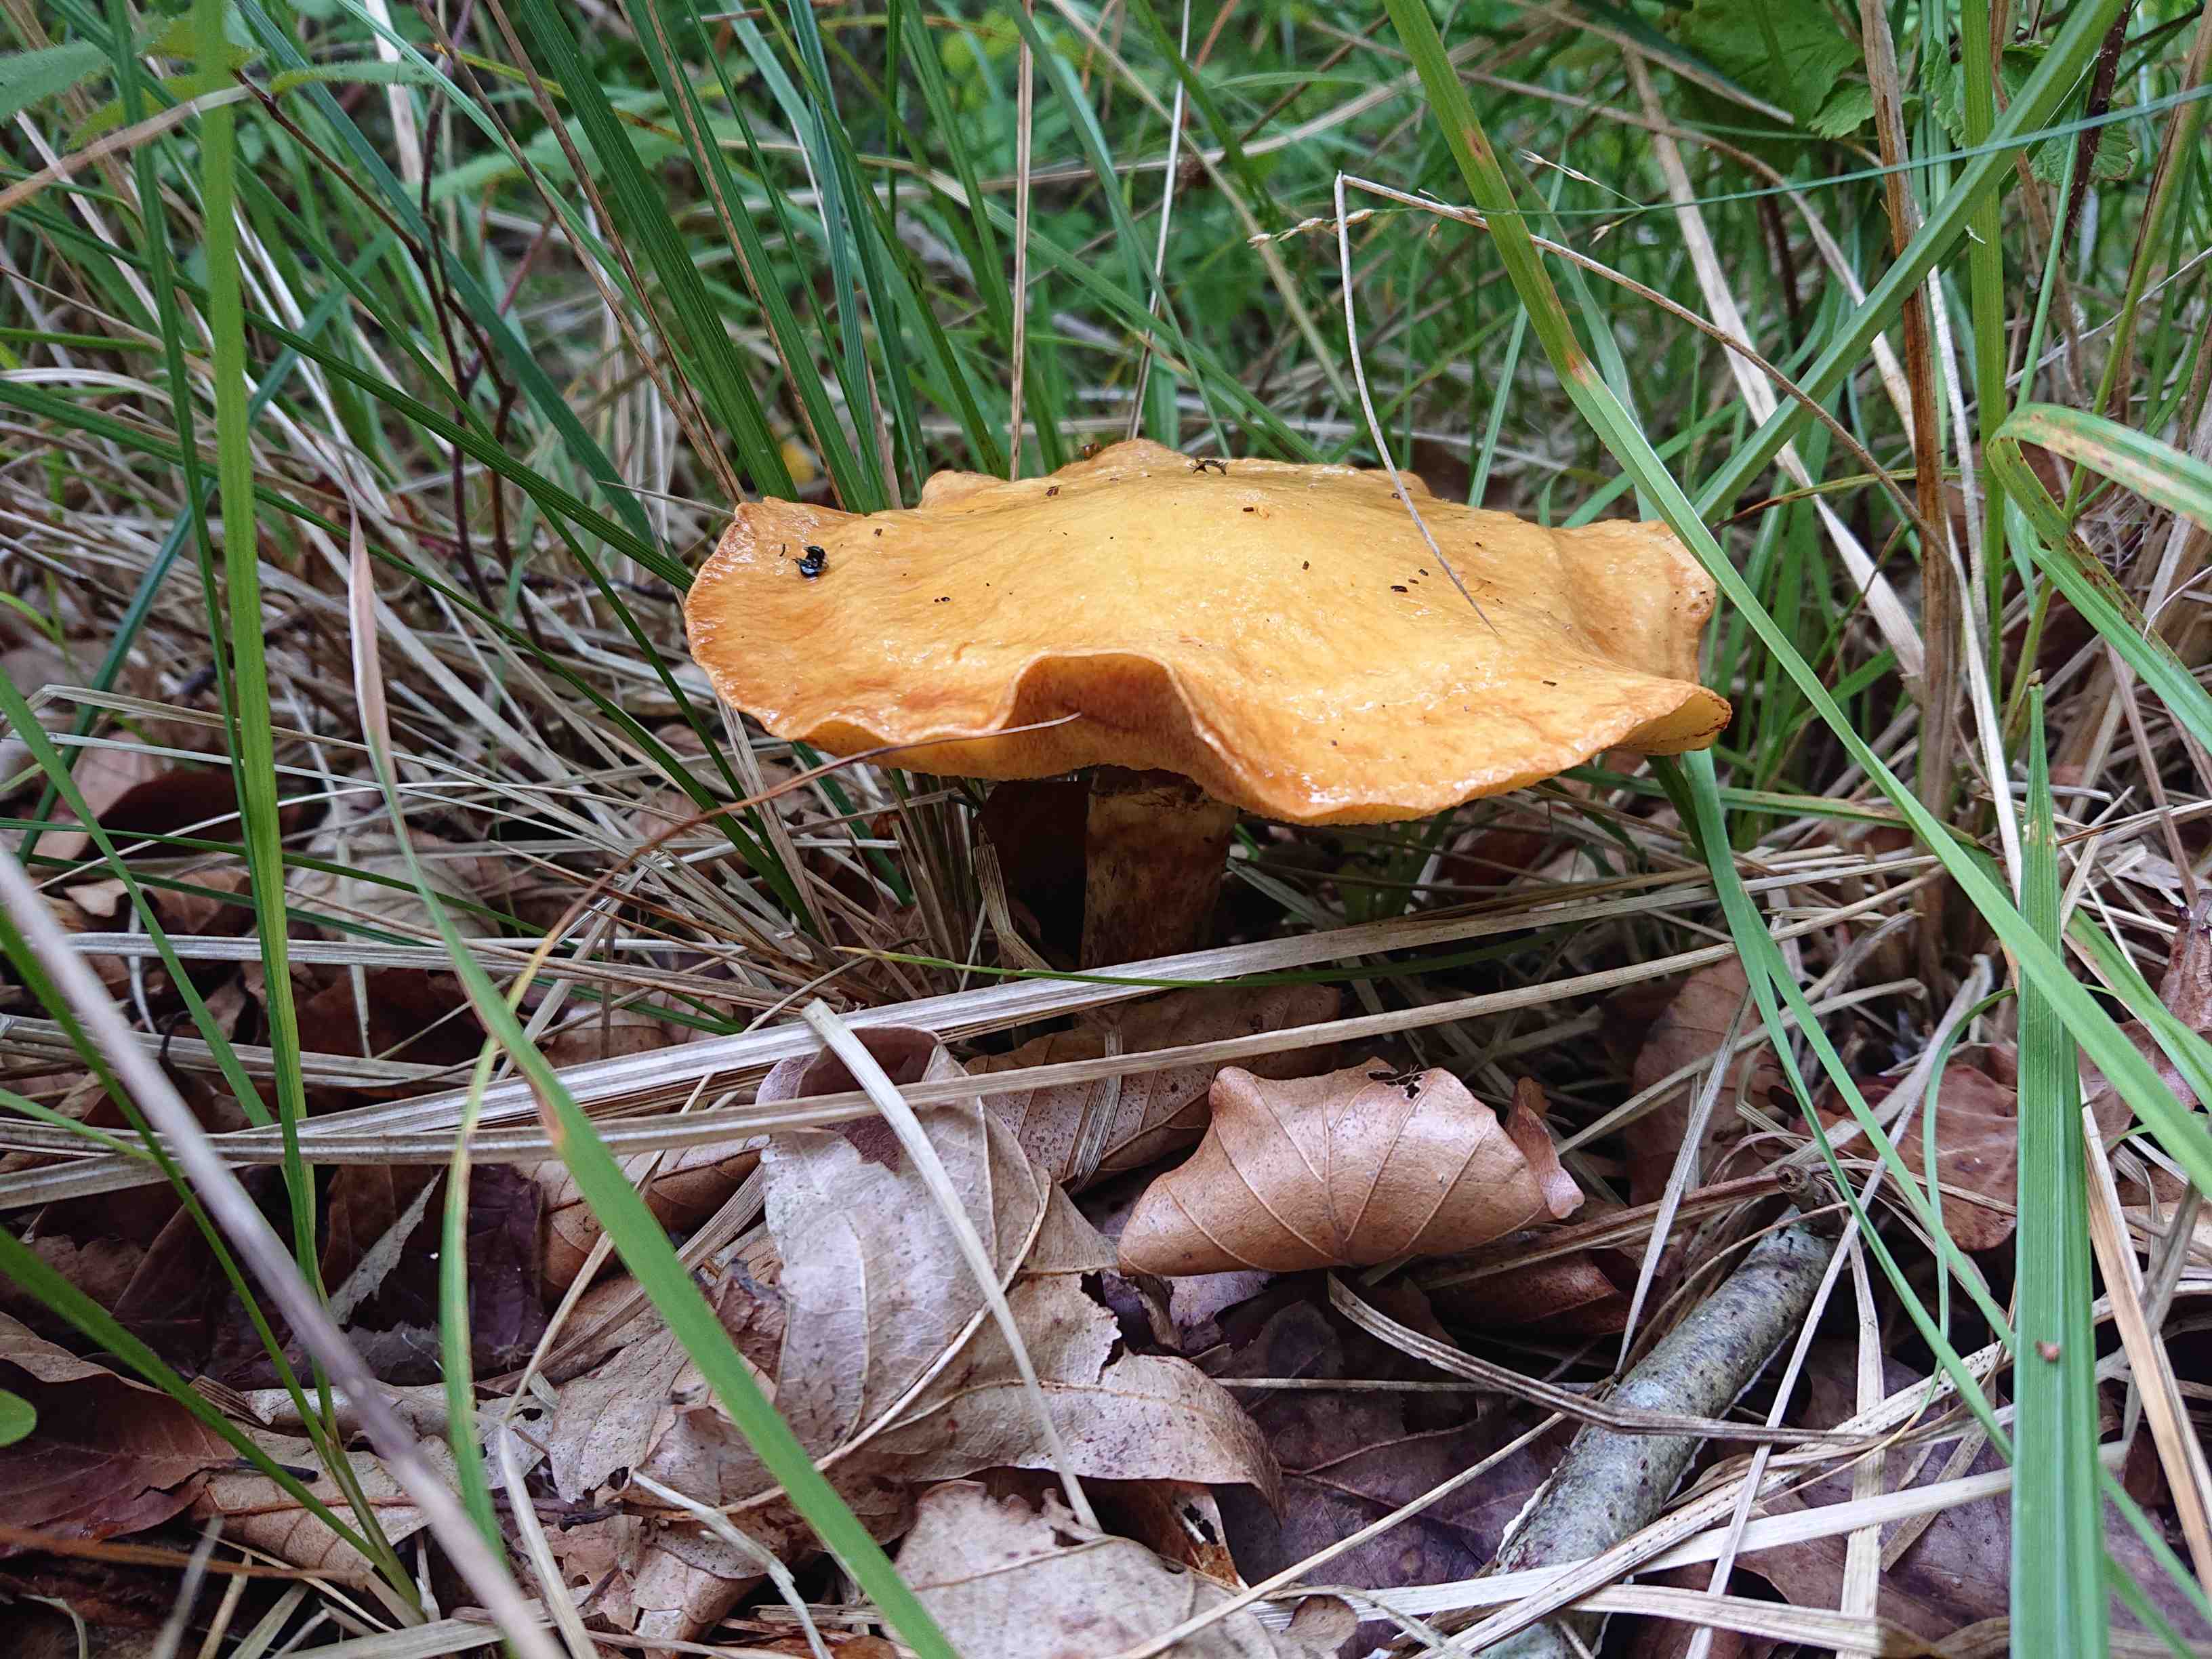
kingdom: Fungi
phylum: Basidiomycota
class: Agaricomycetes
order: Boletales
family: Suillaceae
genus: Suillus
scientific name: Suillus grevillei
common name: lærke-slimrørhat
